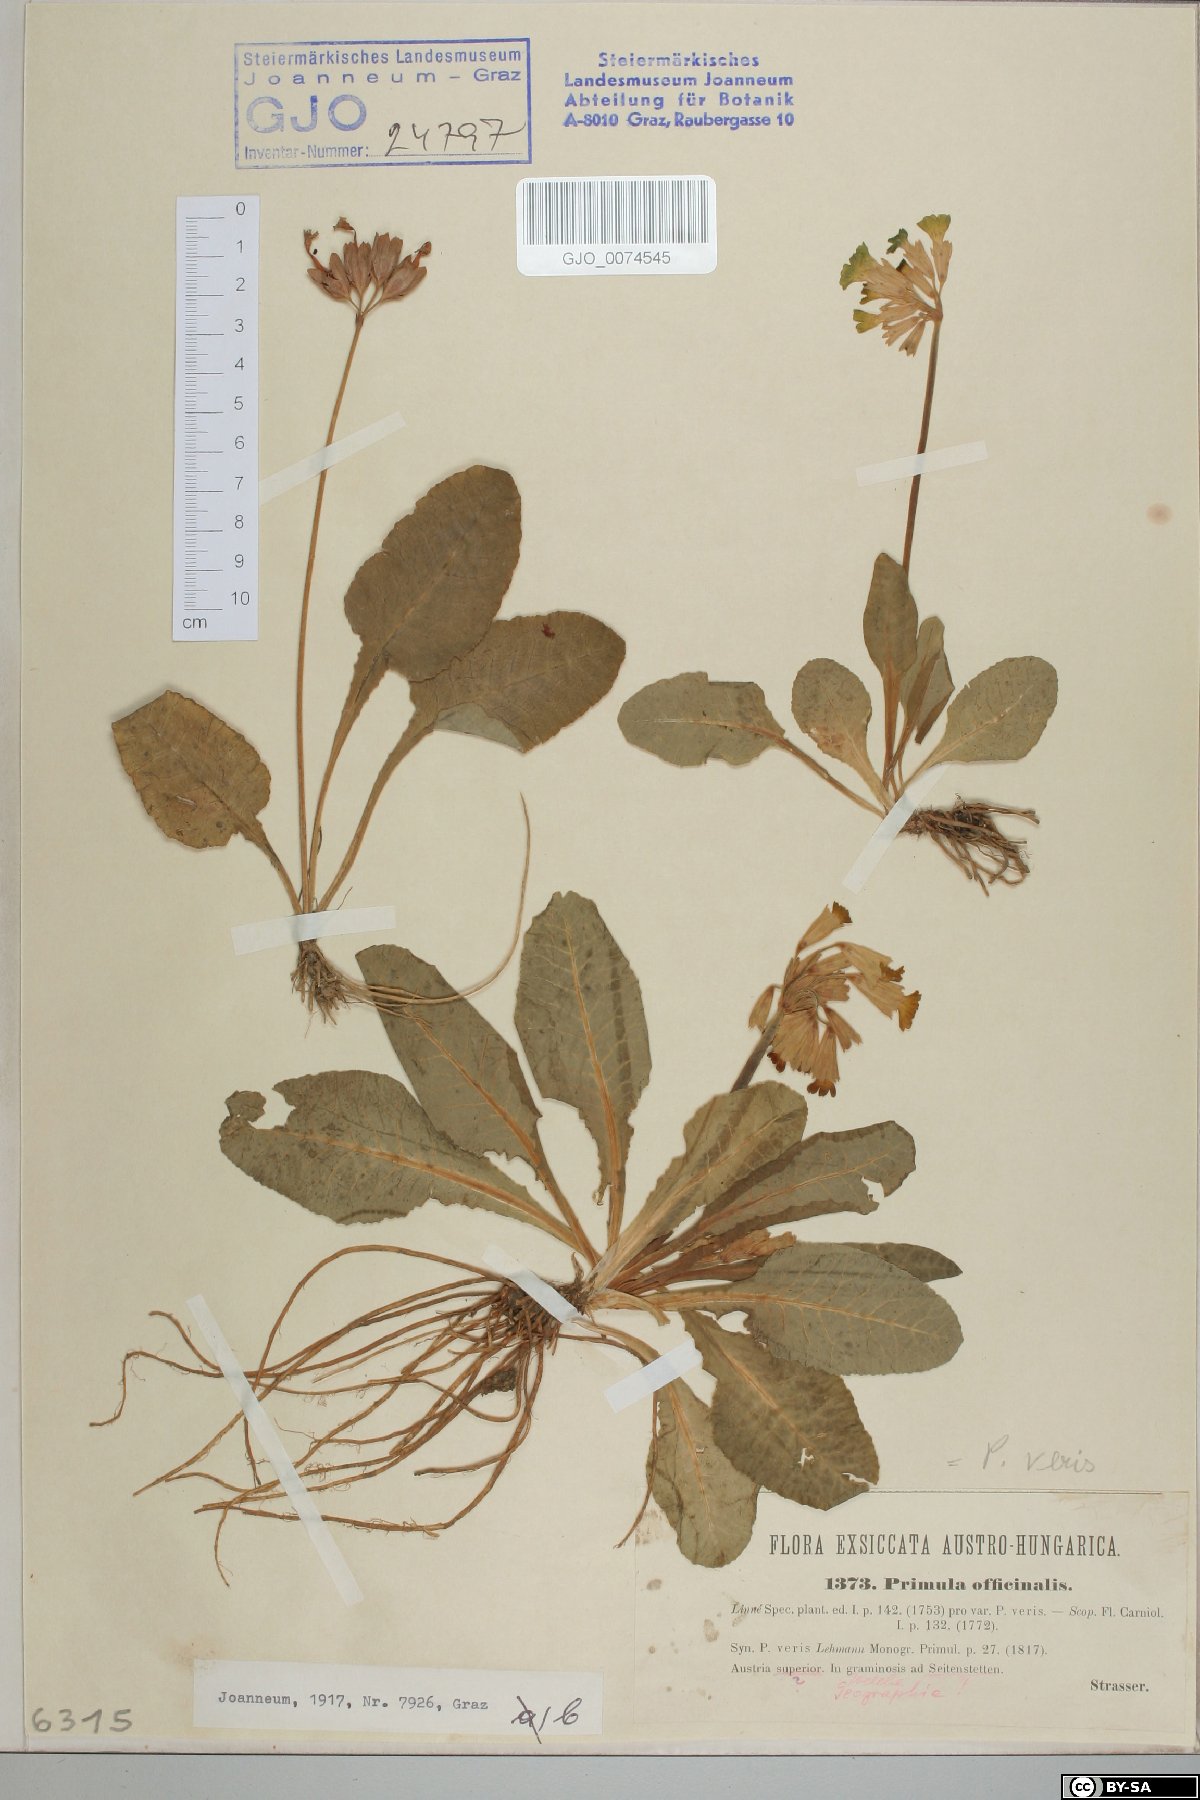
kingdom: Plantae
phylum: Tracheophyta
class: Magnoliopsida
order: Ericales
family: Primulaceae
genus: Primula
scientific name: Primula veris
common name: Cowslip
